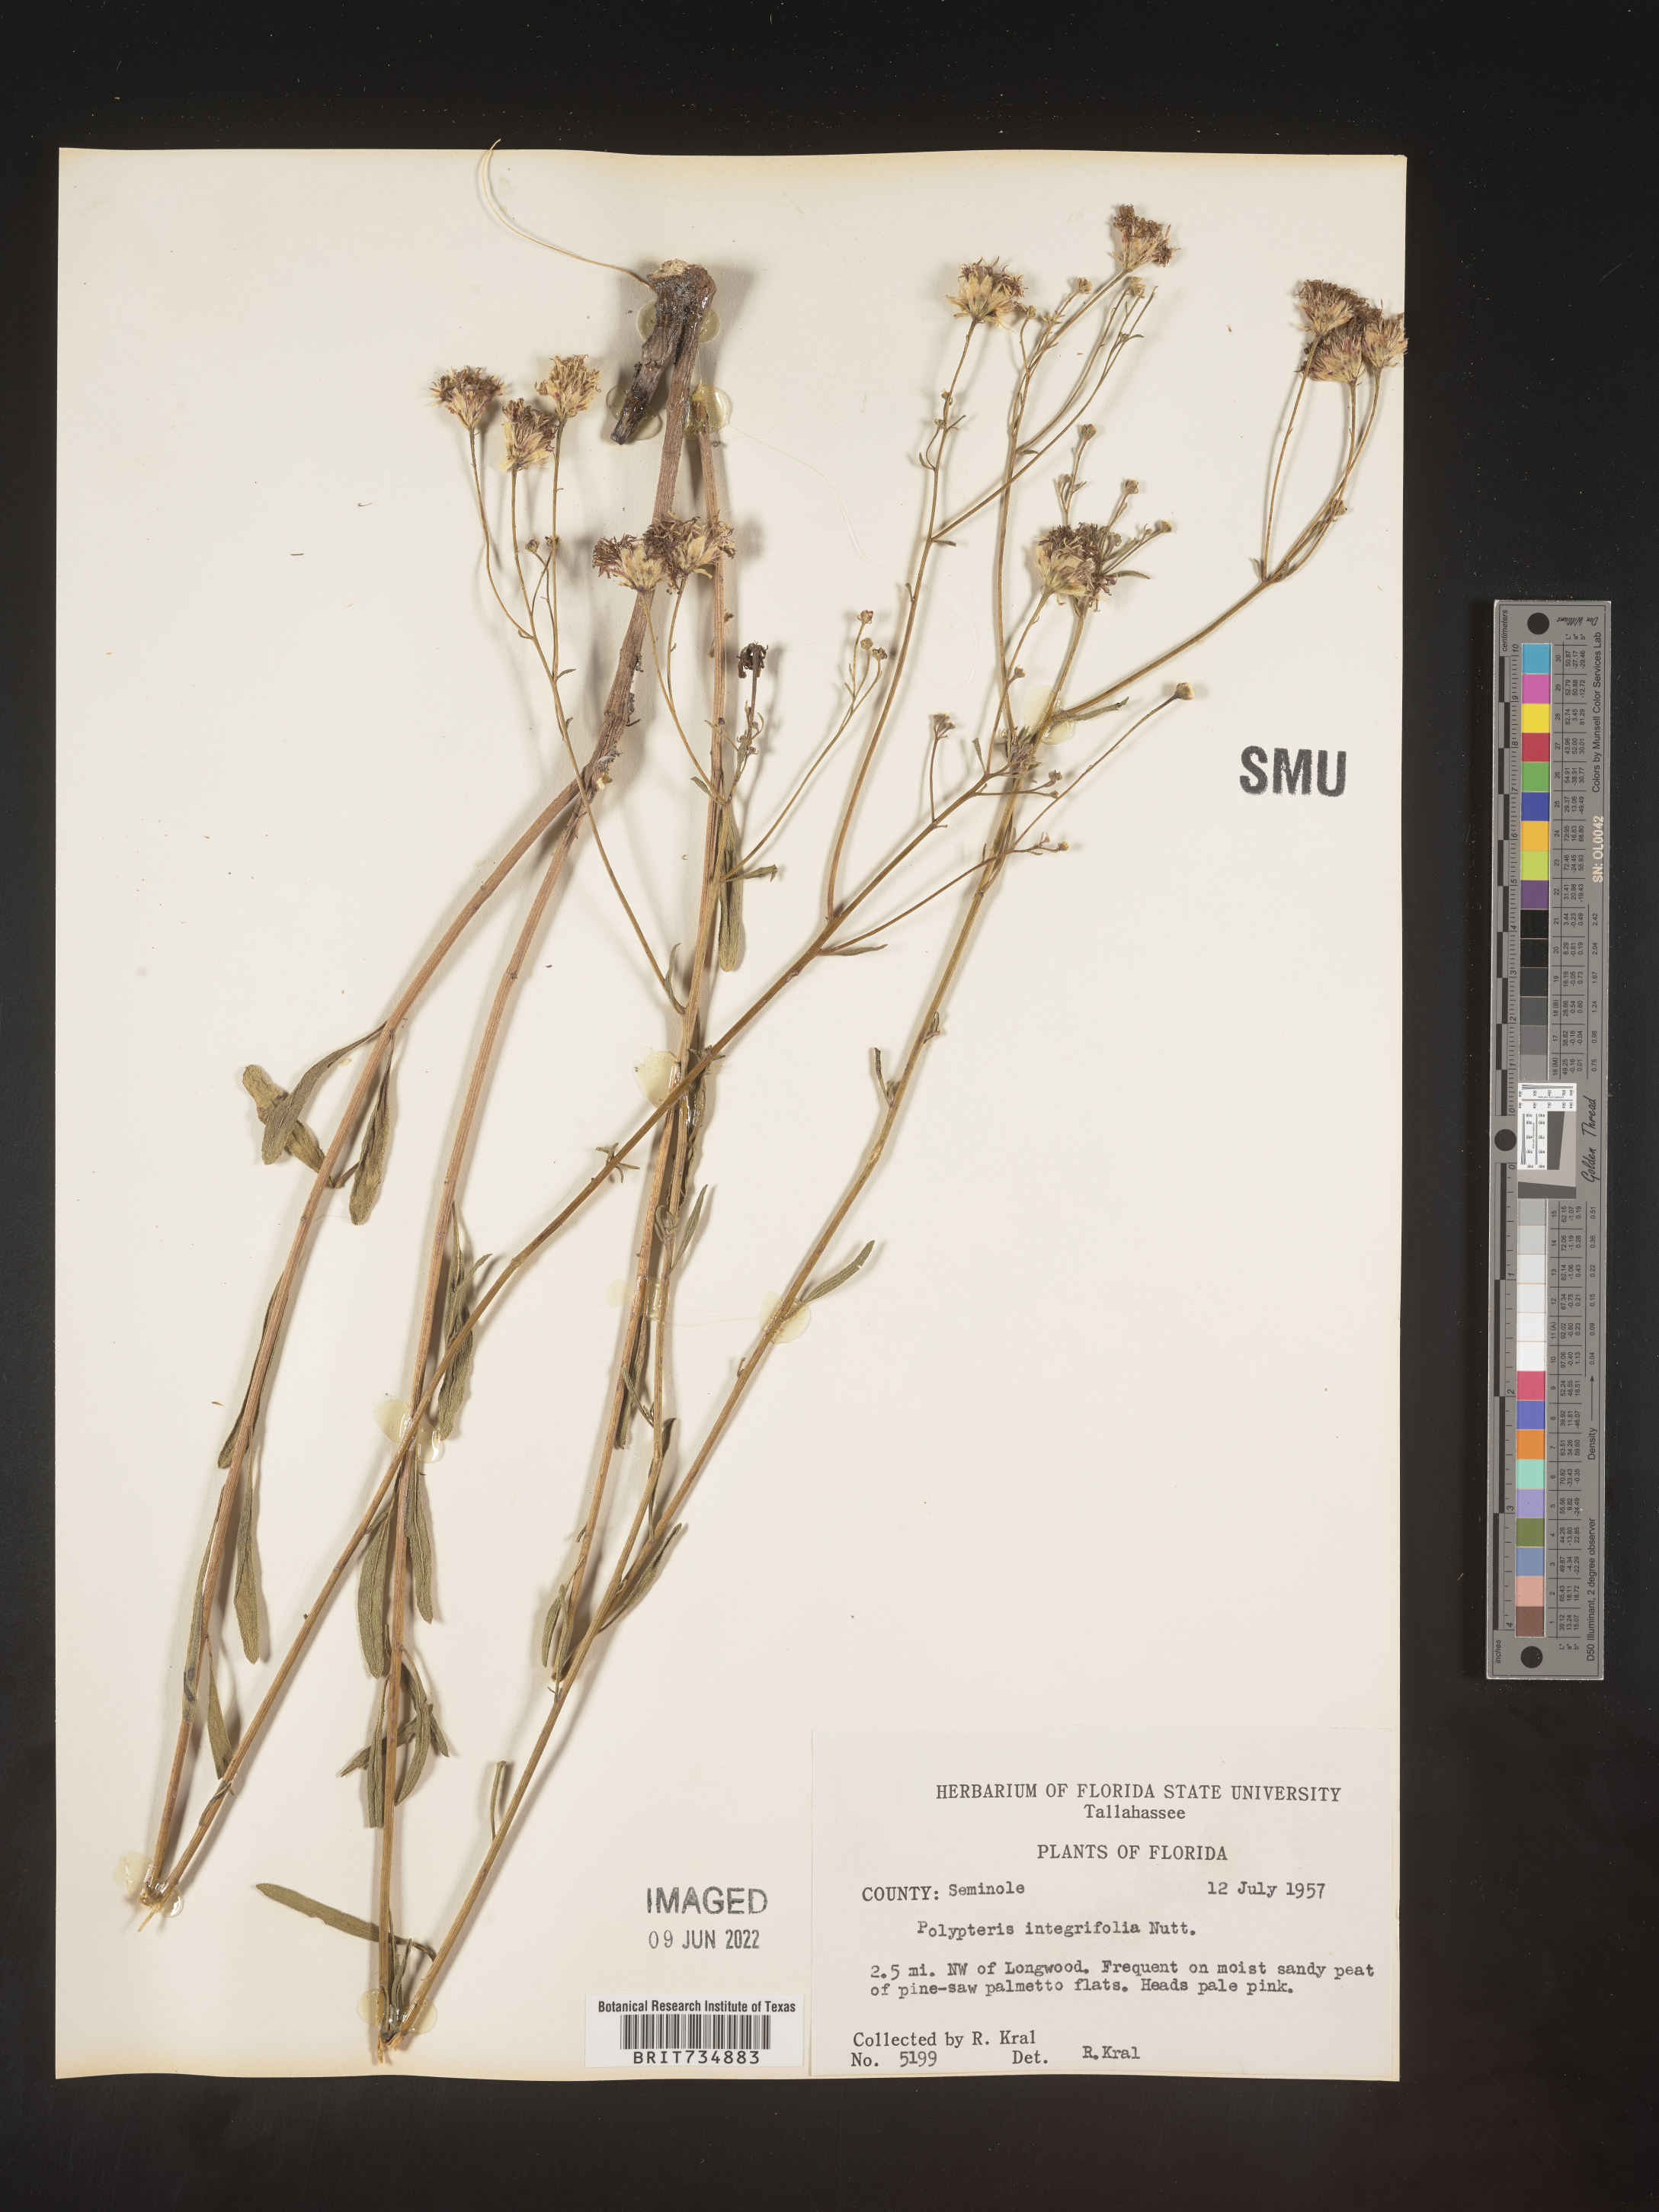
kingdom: Plantae
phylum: Tracheophyta
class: Magnoliopsida
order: Asterales
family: Asteraceae
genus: Palafoxia
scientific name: Palafoxia integrifolia
